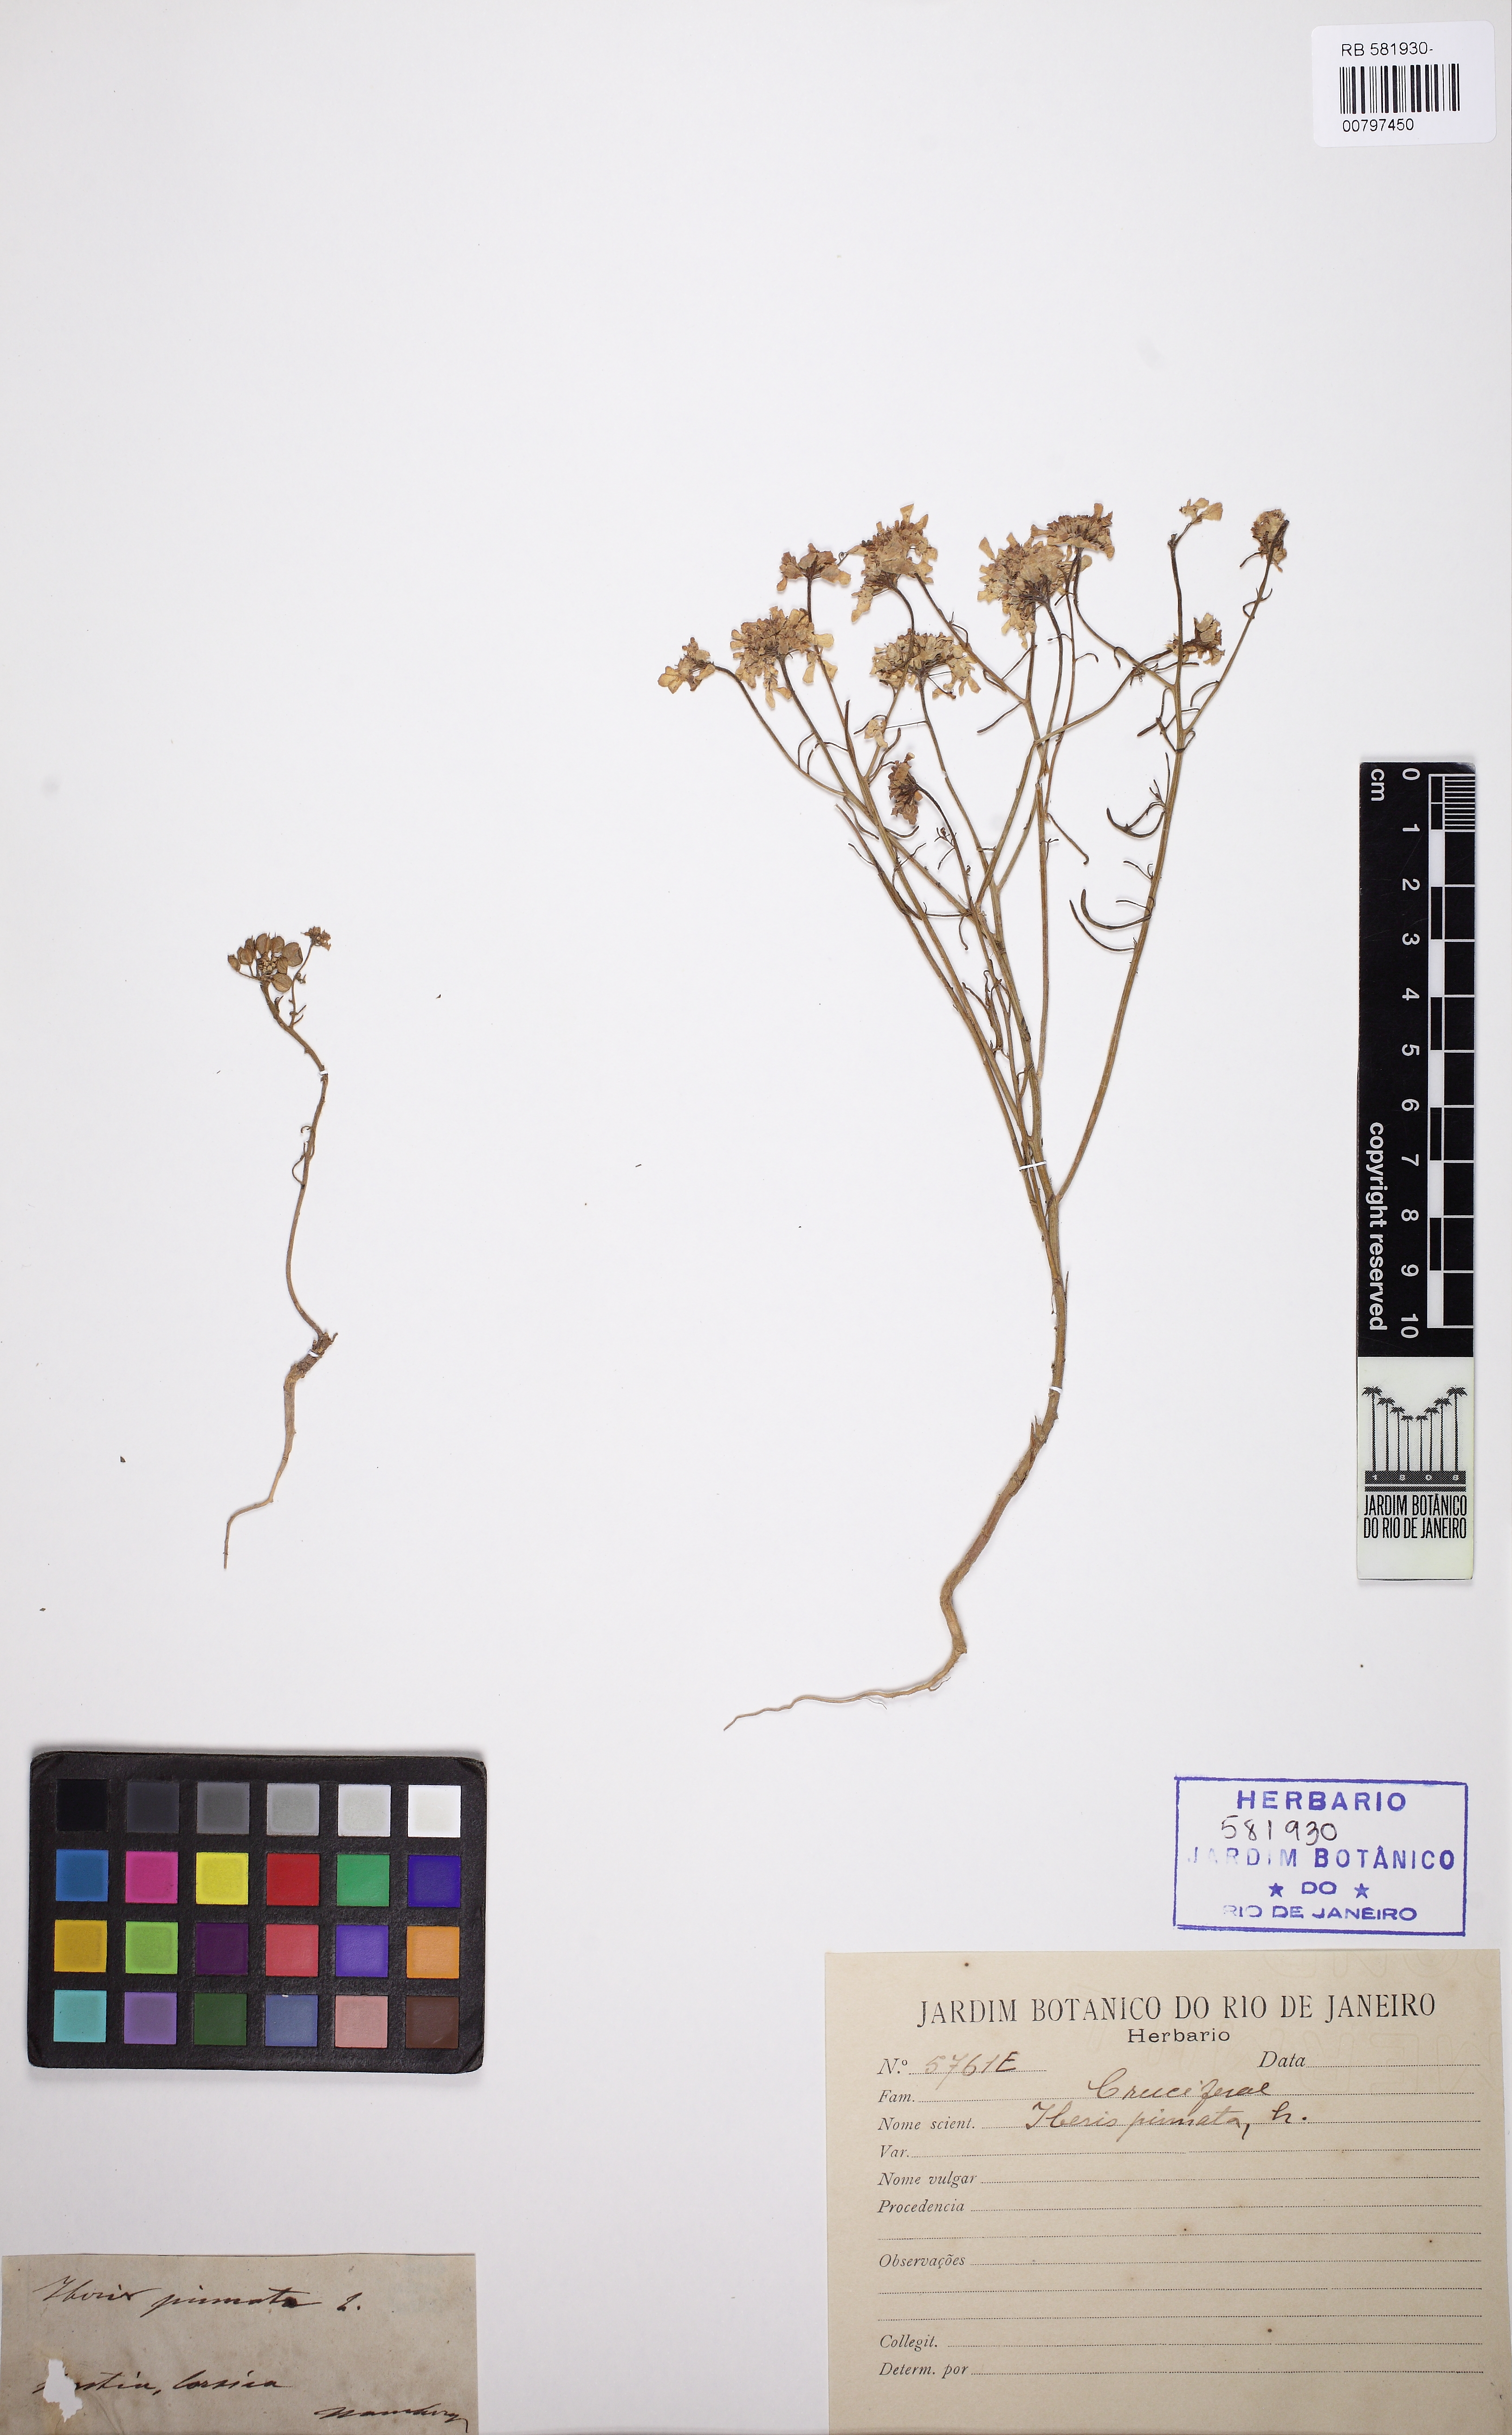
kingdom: Plantae
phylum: Tracheophyta
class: Magnoliopsida
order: Brassicales
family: Brassicaceae
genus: Iberis
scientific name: Iberis pinnata
